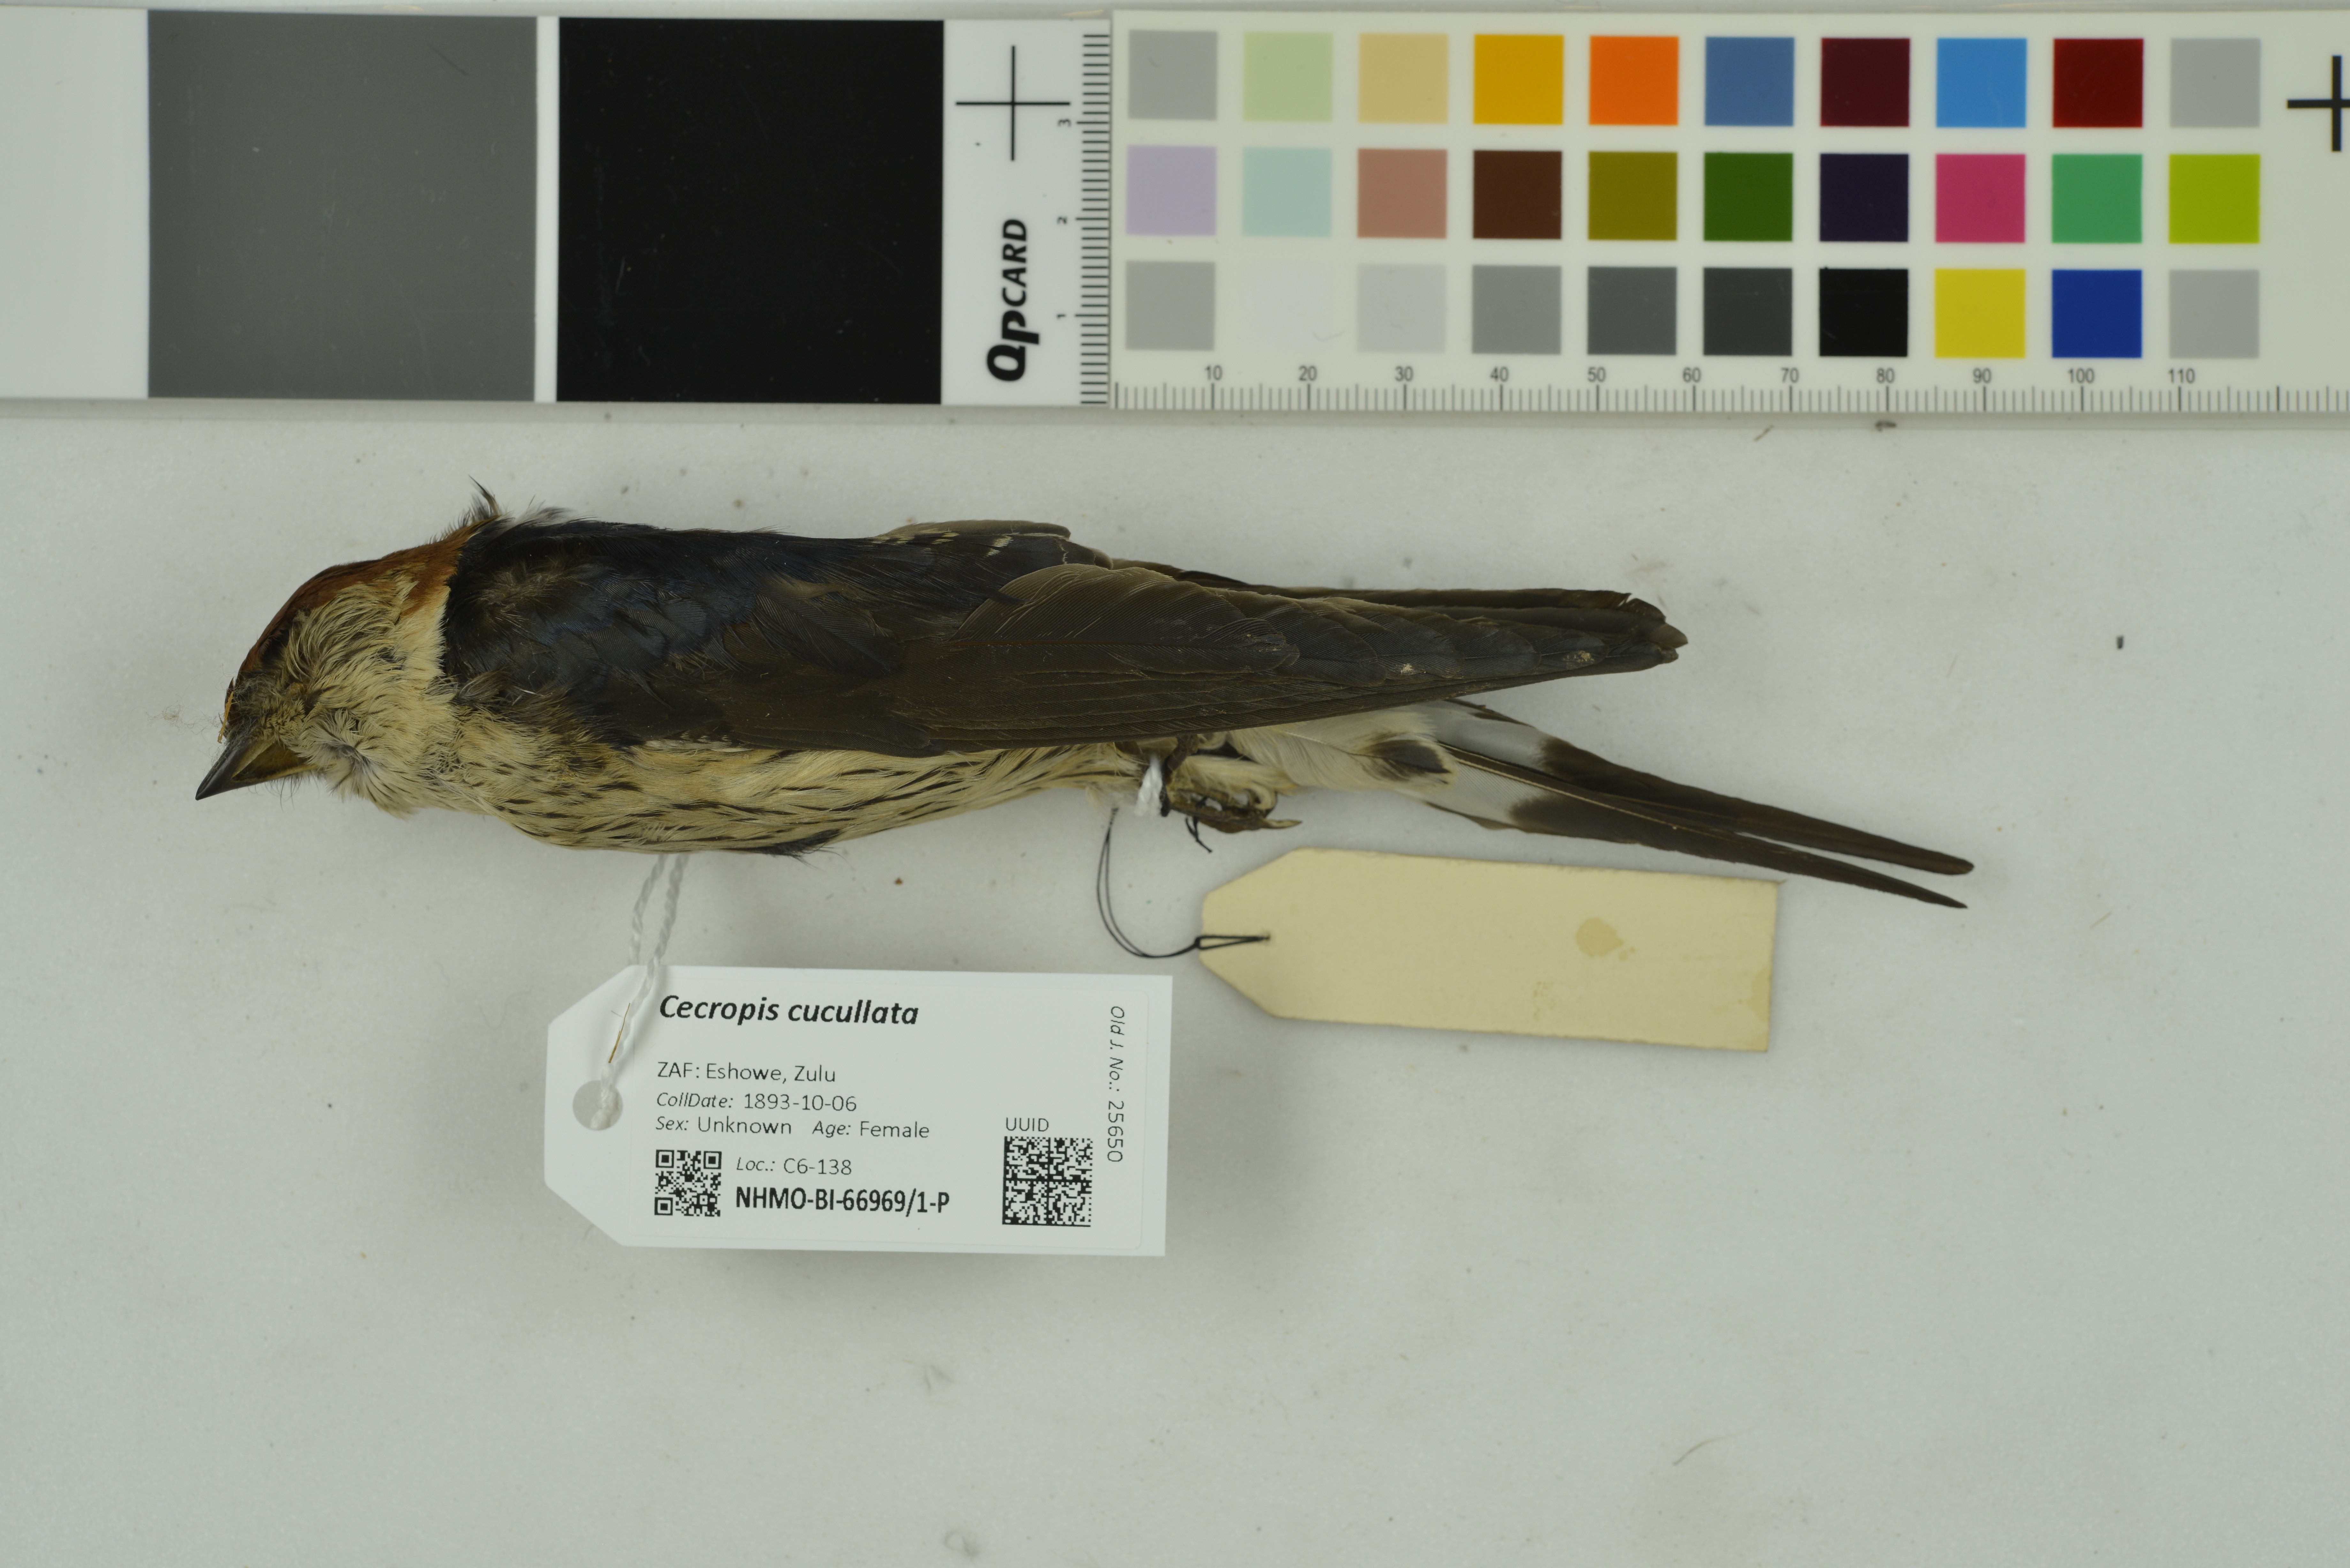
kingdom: Animalia
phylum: Chordata
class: Aves
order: Passeriformes
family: Hirundinidae
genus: Cecropis
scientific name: Cecropis cucullata
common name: Greater striped-swallow
